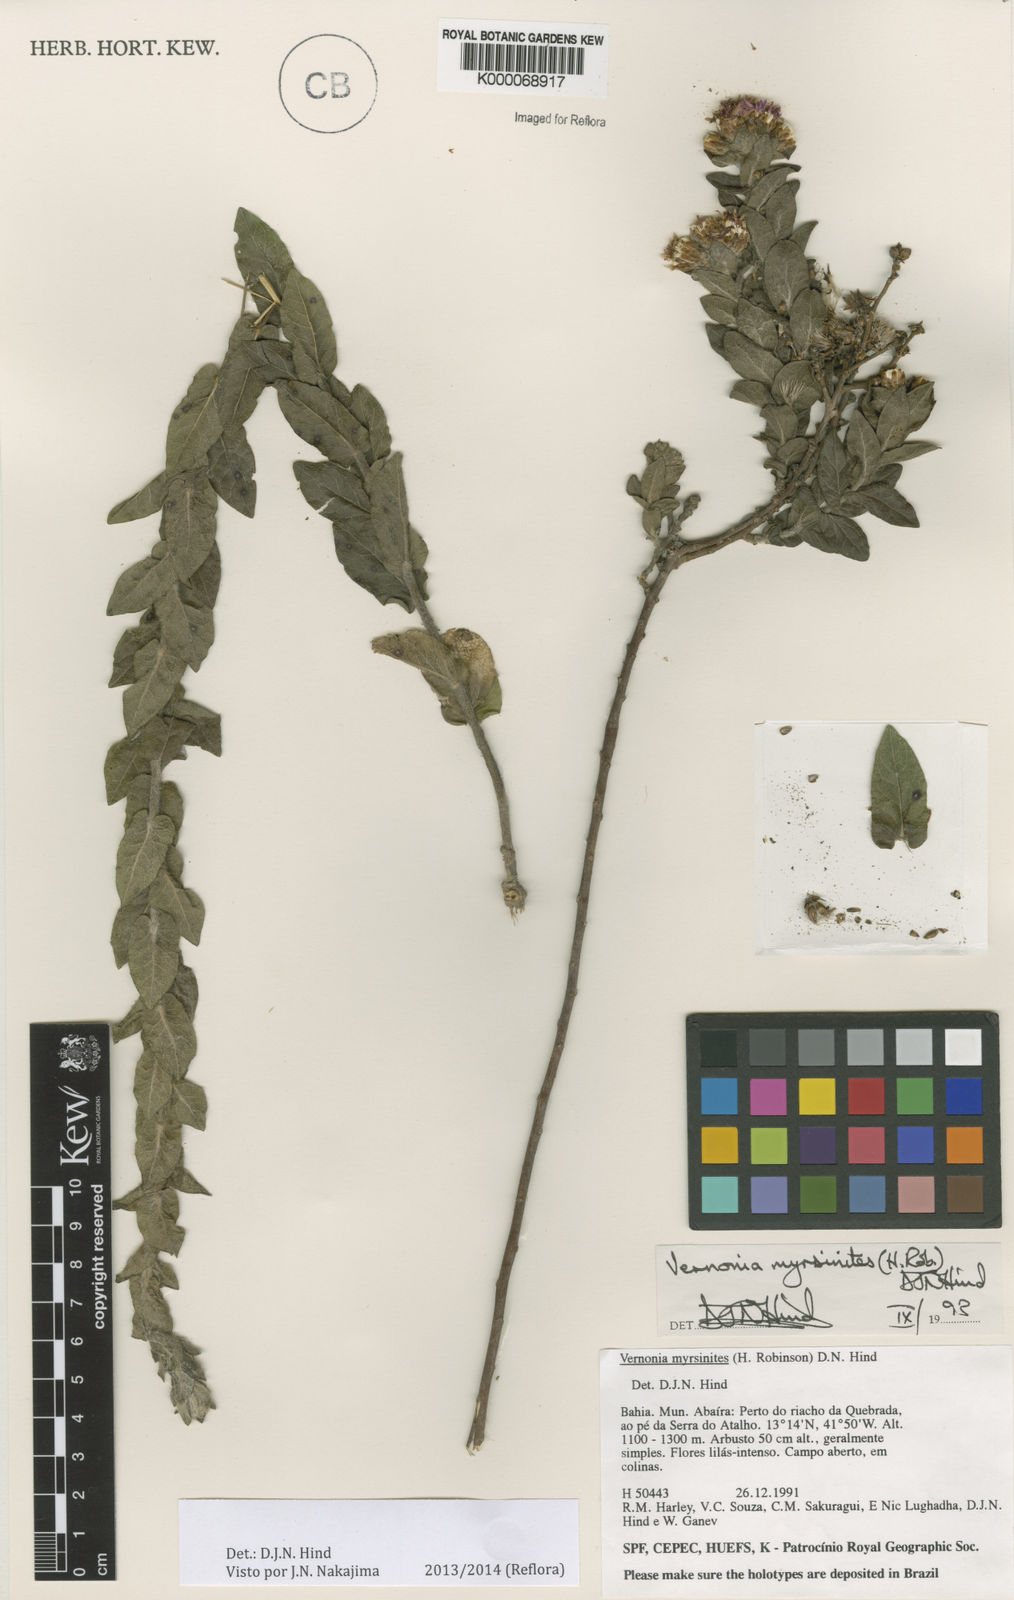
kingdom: Plantae
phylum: Tracheophyta
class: Magnoliopsida
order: Asterales
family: Asteraceae
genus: Lessingianthus
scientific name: Lessingianthus myrsinites
